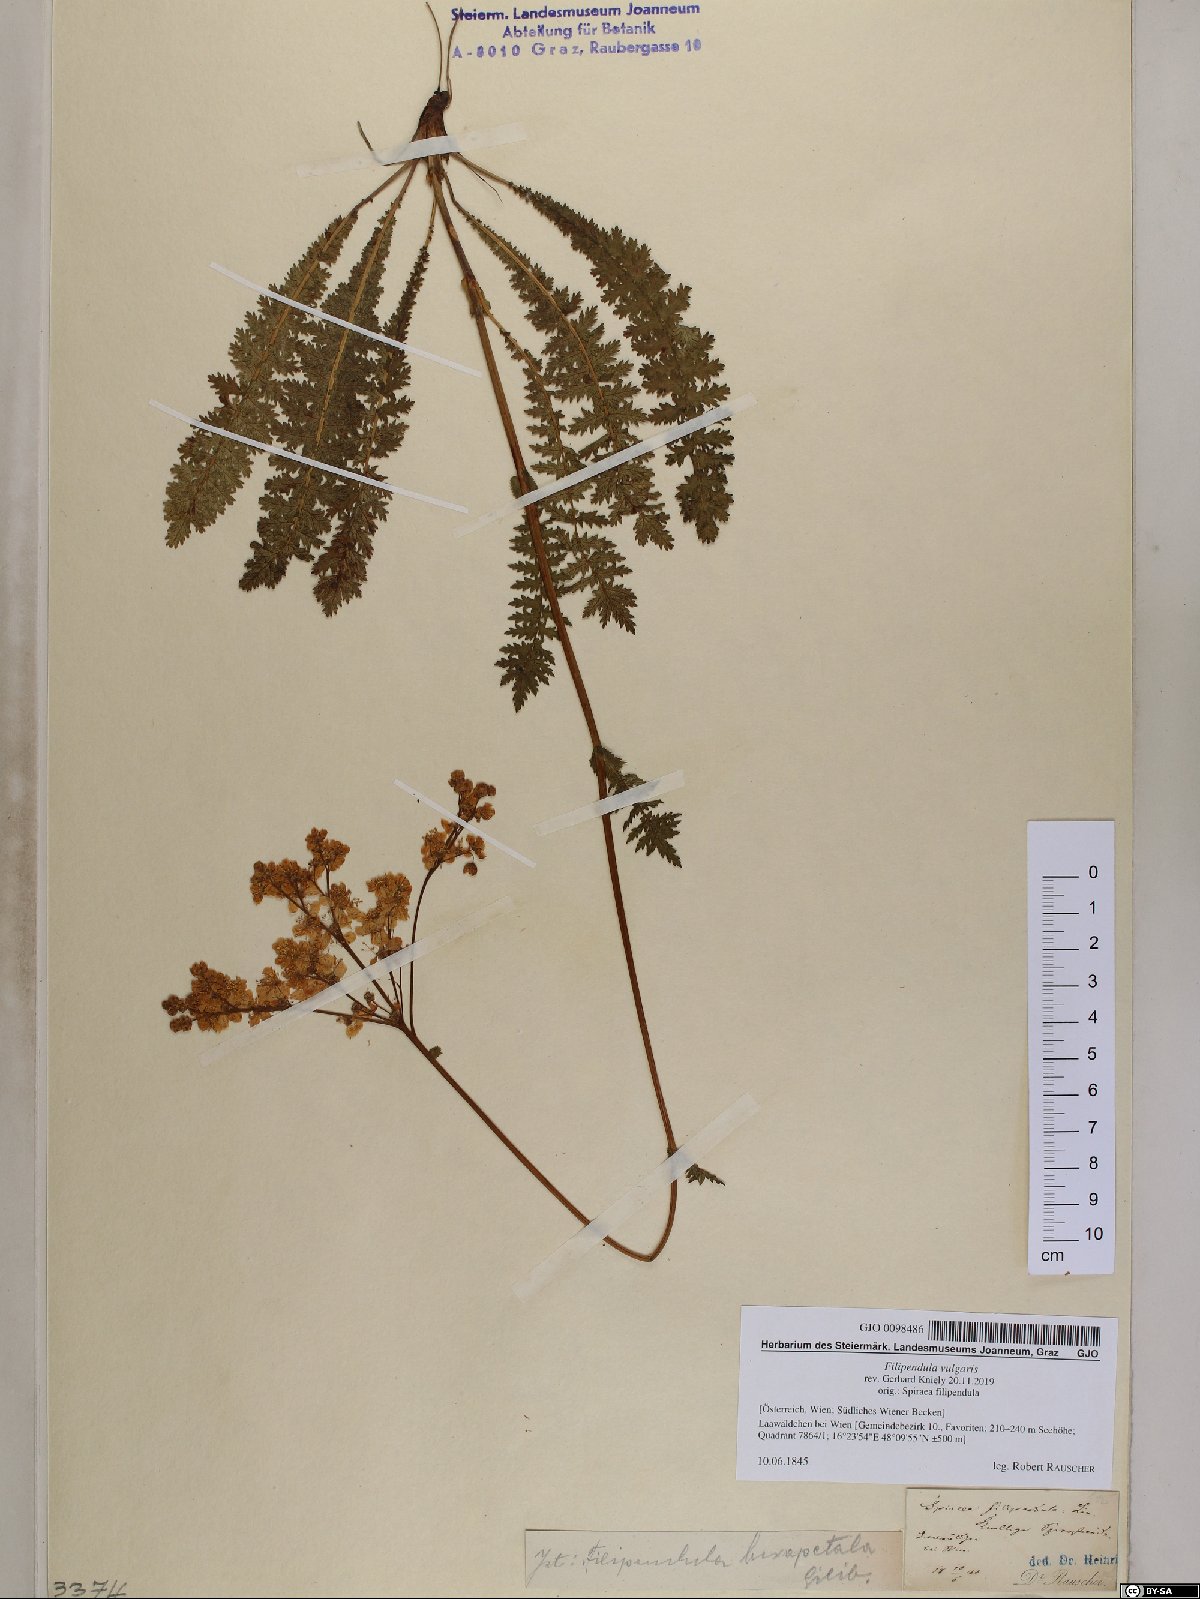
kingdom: Plantae
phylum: Tracheophyta
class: Magnoliopsida
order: Rosales
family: Rosaceae
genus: Filipendula
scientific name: Filipendula vulgaris
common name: Dropwort
